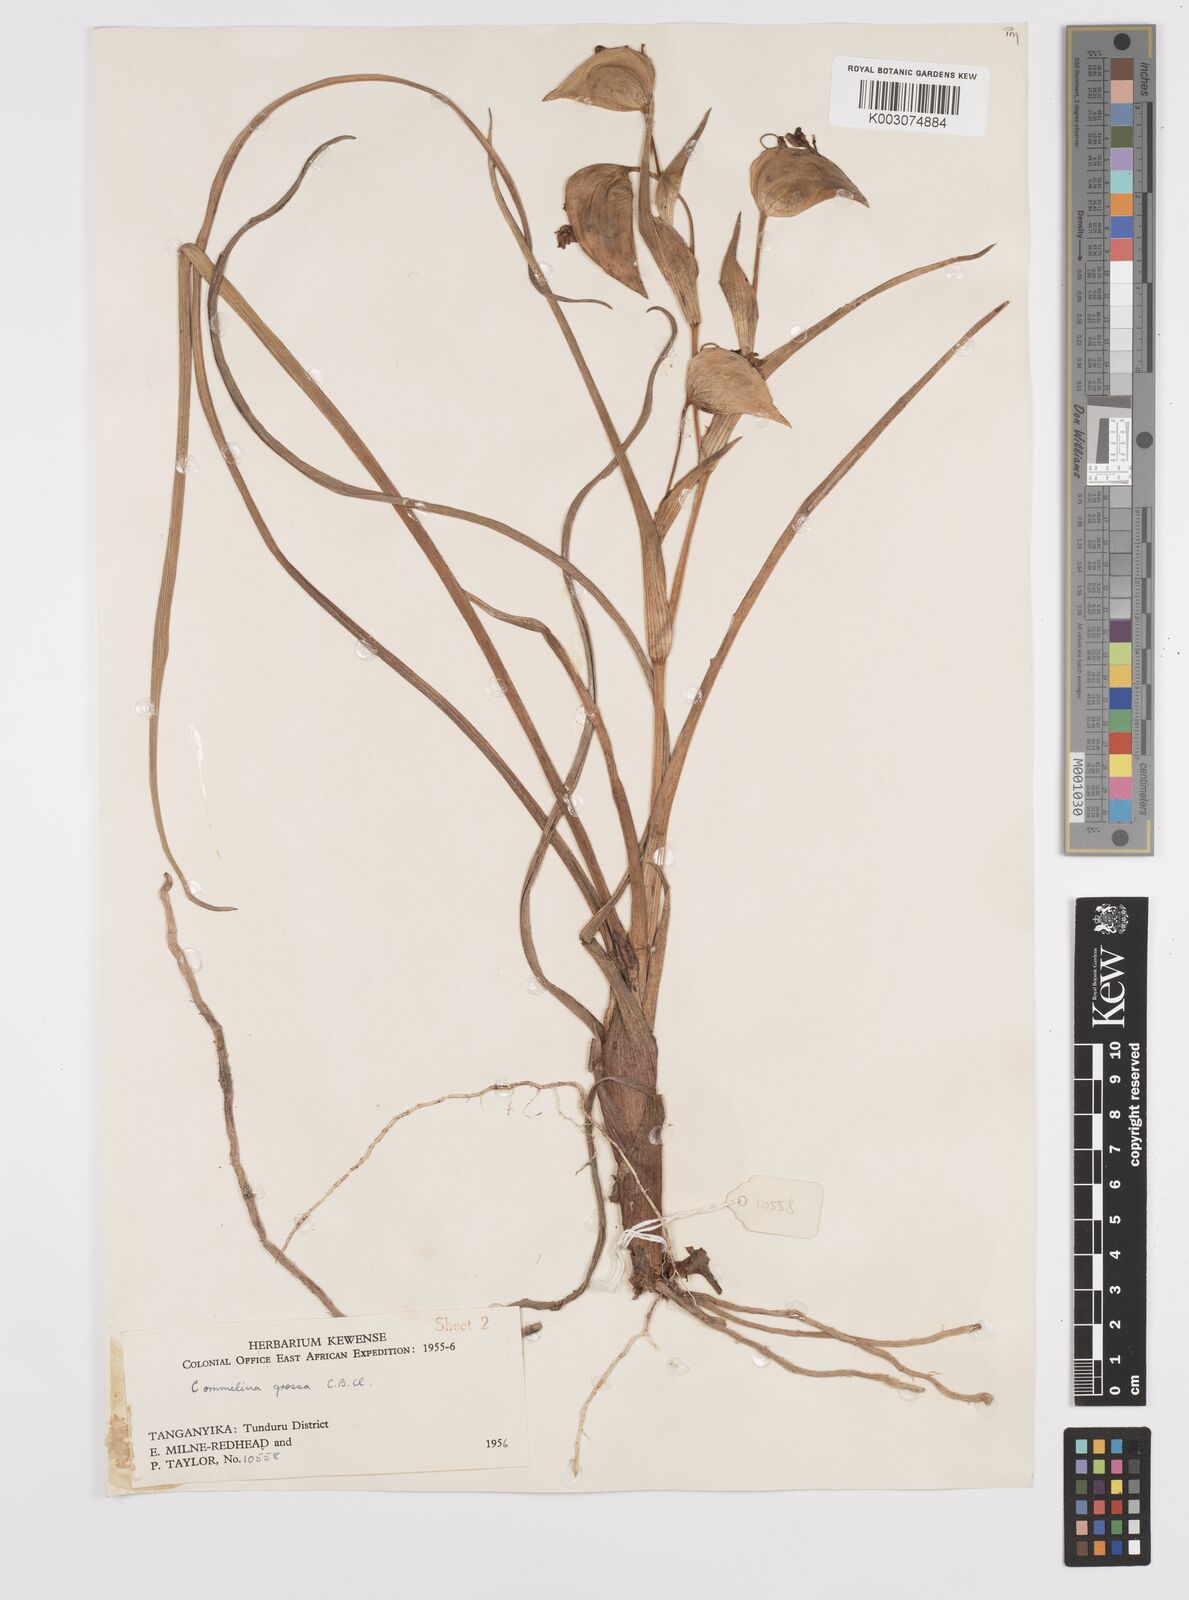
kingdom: Plantae
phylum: Tracheophyta
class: Liliopsida
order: Commelinales
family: Commelinaceae
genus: Commelina
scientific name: Commelina grossa
